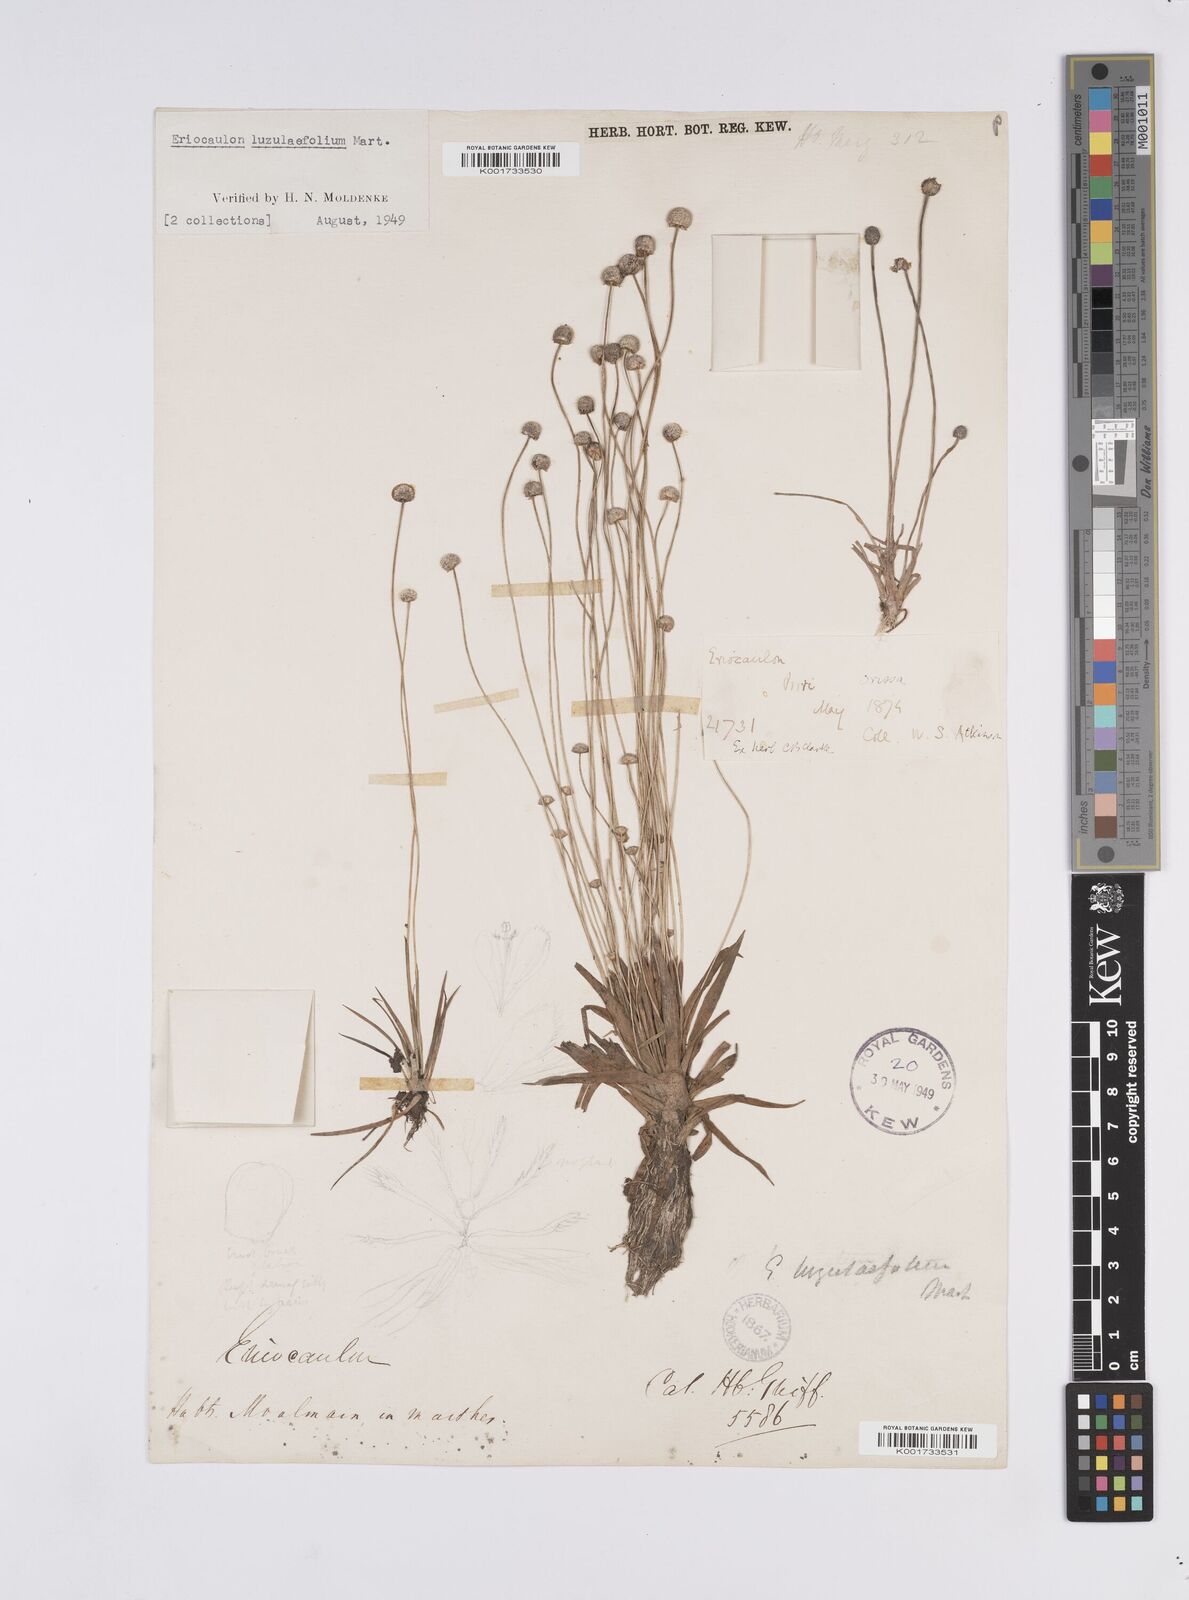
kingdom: Plantae
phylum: Tracheophyta
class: Liliopsida
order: Poales
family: Eriocaulaceae
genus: Eriocaulon
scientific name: Eriocaulon nepalense
